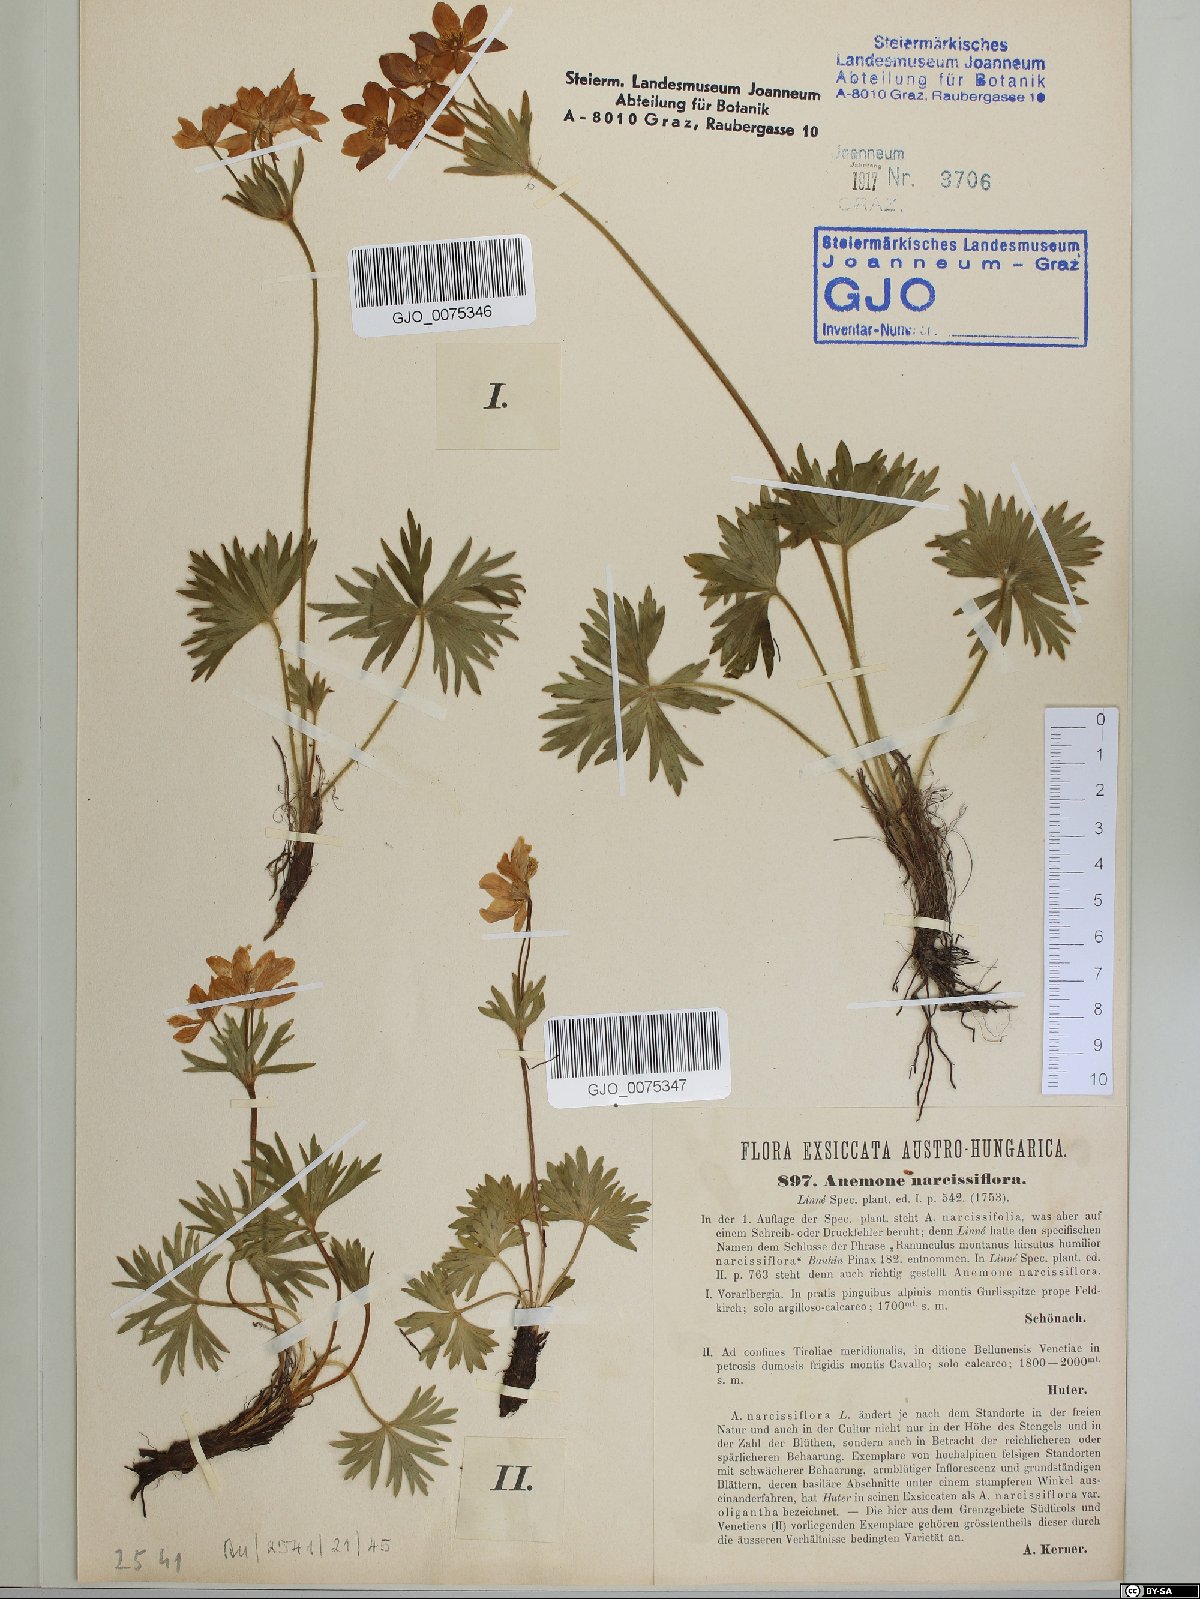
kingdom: Plantae
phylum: Tracheophyta
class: Magnoliopsida
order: Ranunculales
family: Ranunculaceae
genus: Anemonastrum
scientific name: Anemonastrum narcissiflorum
